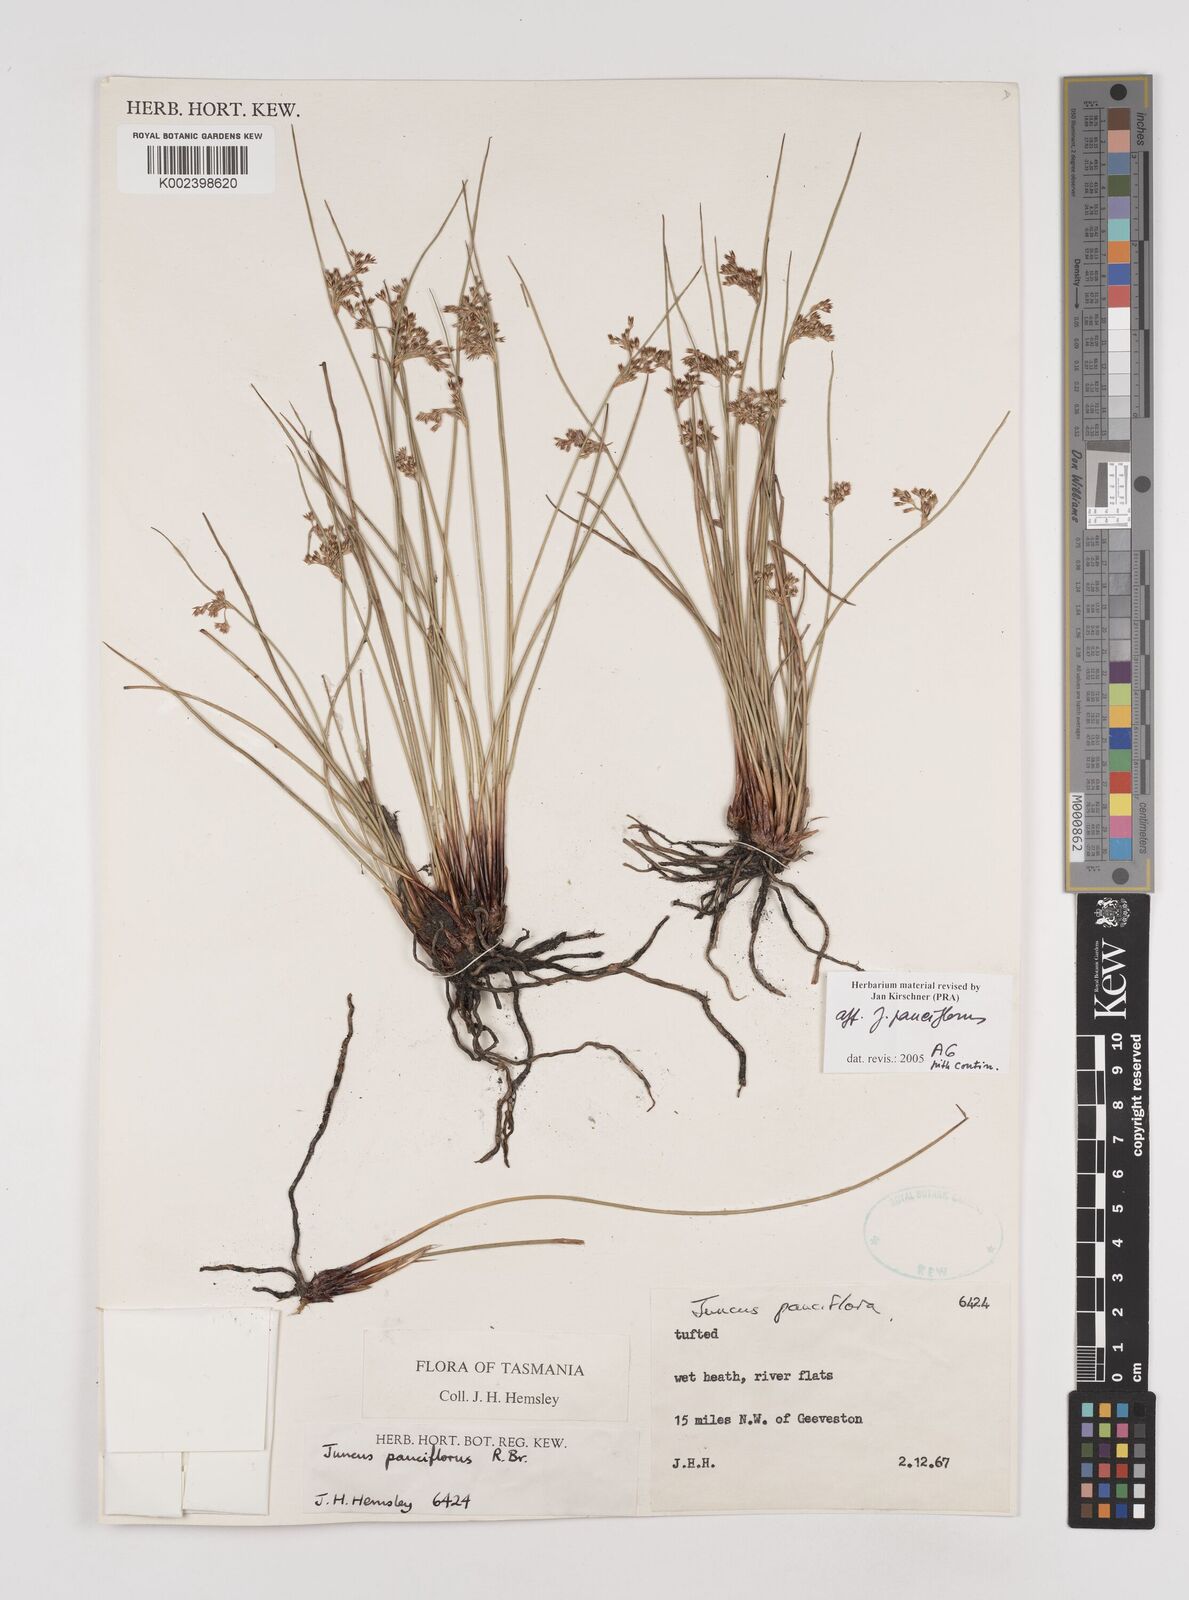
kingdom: Plantae
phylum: Tracheophyta
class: Liliopsida
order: Poales
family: Juncaceae
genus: Juncus
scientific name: Juncus pauciflorus
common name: Loose-flowered rush
